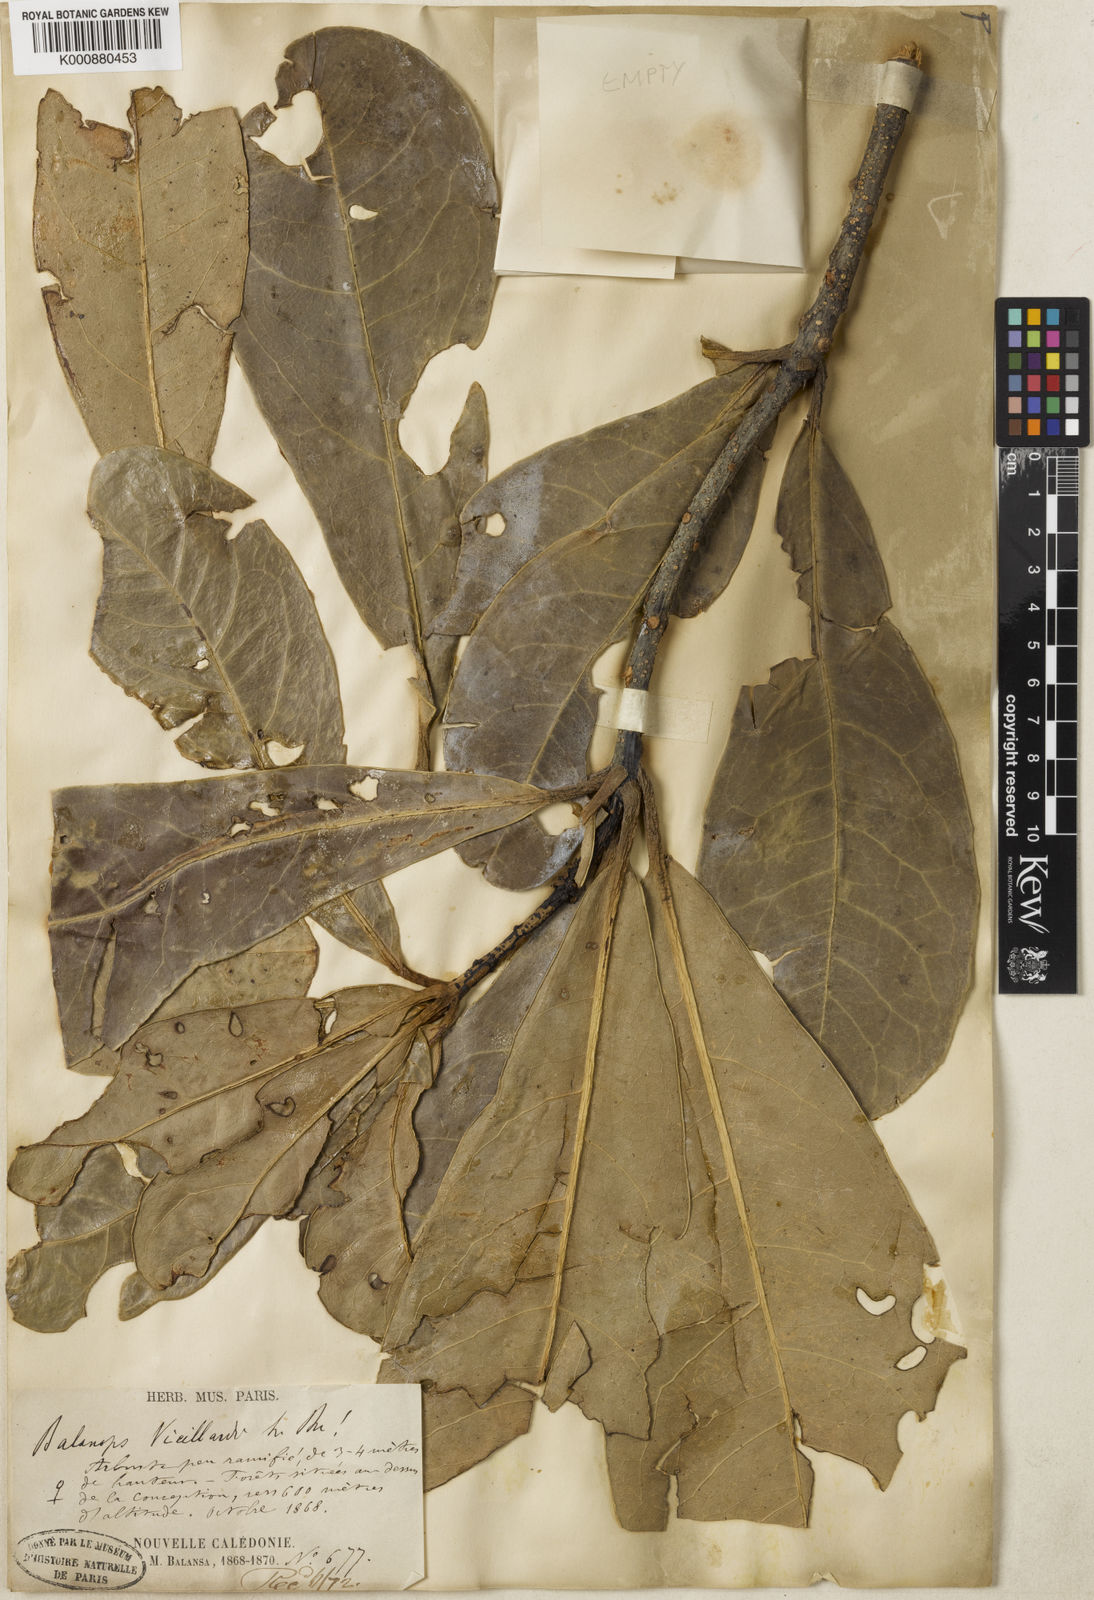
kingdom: Plantae
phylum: Tracheophyta
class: Magnoliopsida
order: Malpighiales
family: Balanopaceae
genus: Balanops
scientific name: Balanops vieillardii
